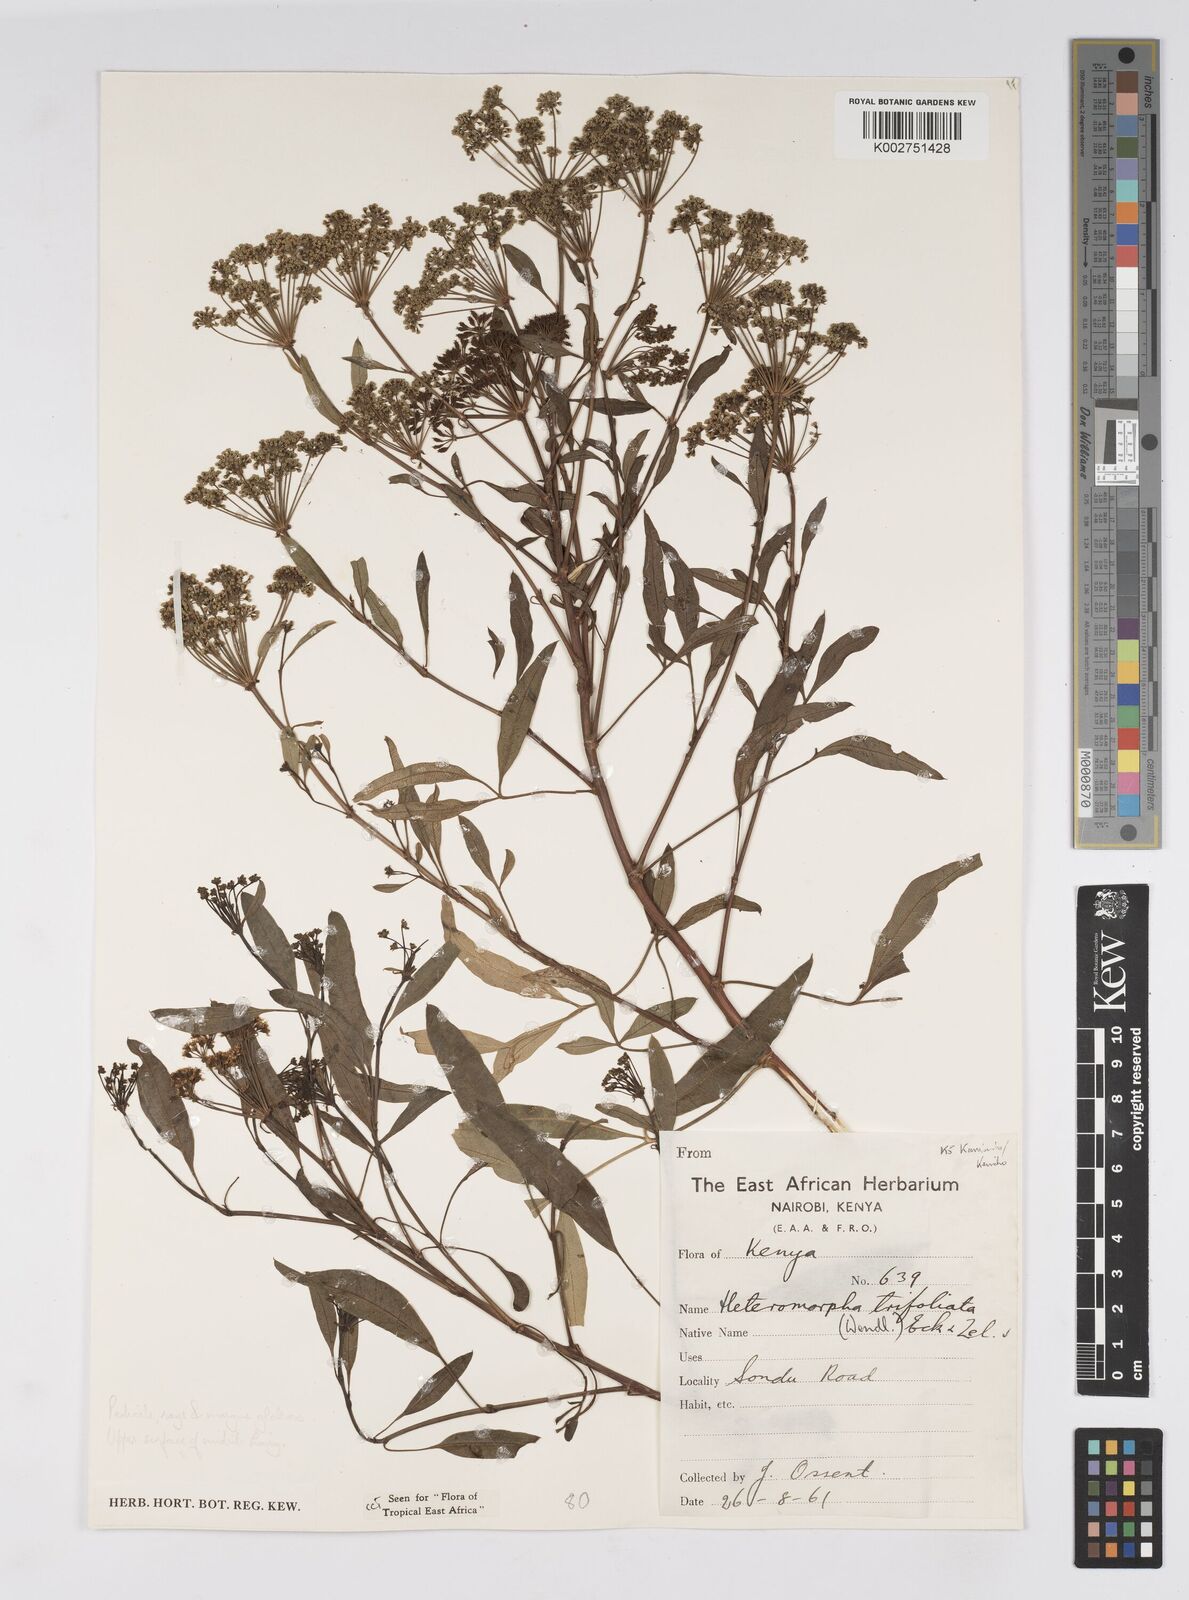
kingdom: Plantae
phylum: Tracheophyta
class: Magnoliopsida
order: Apiales
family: Apiaceae
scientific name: Apiaceae
